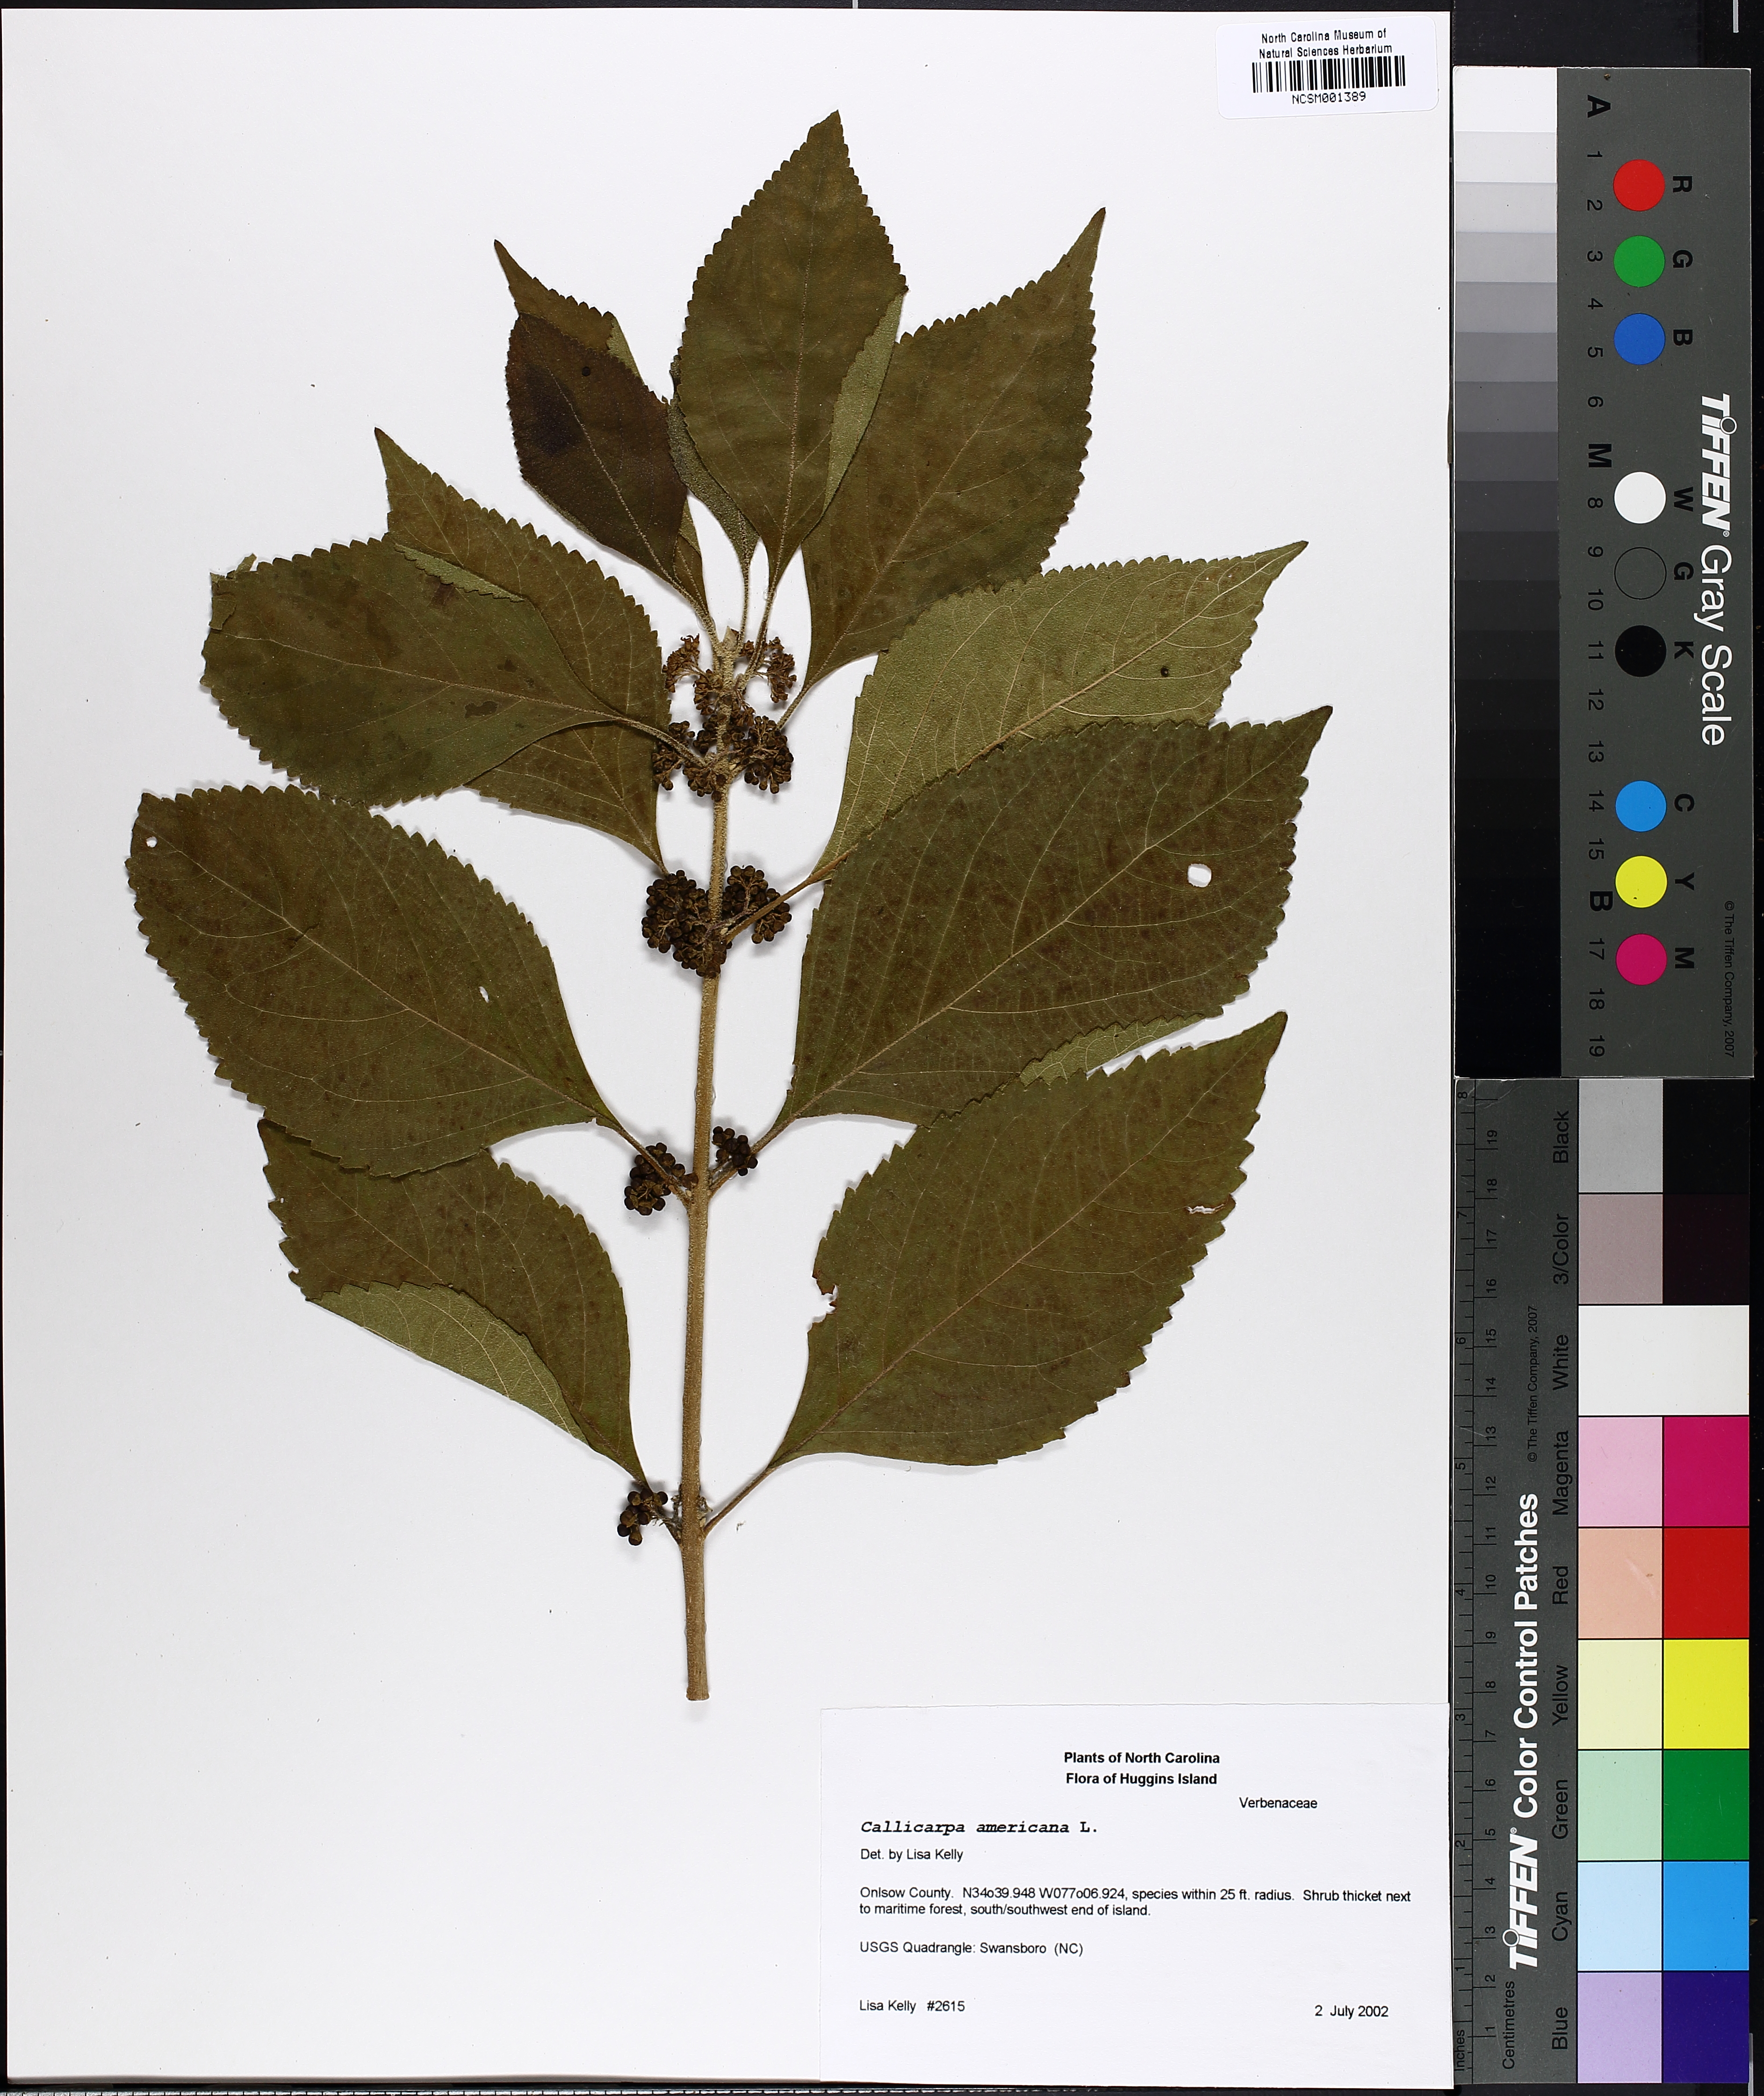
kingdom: Plantae
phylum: Tracheophyta
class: Magnoliopsida
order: Lamiales
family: Lamiaceae
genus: Callicarpa
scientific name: Callicarpa americana
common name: American beautyberry
